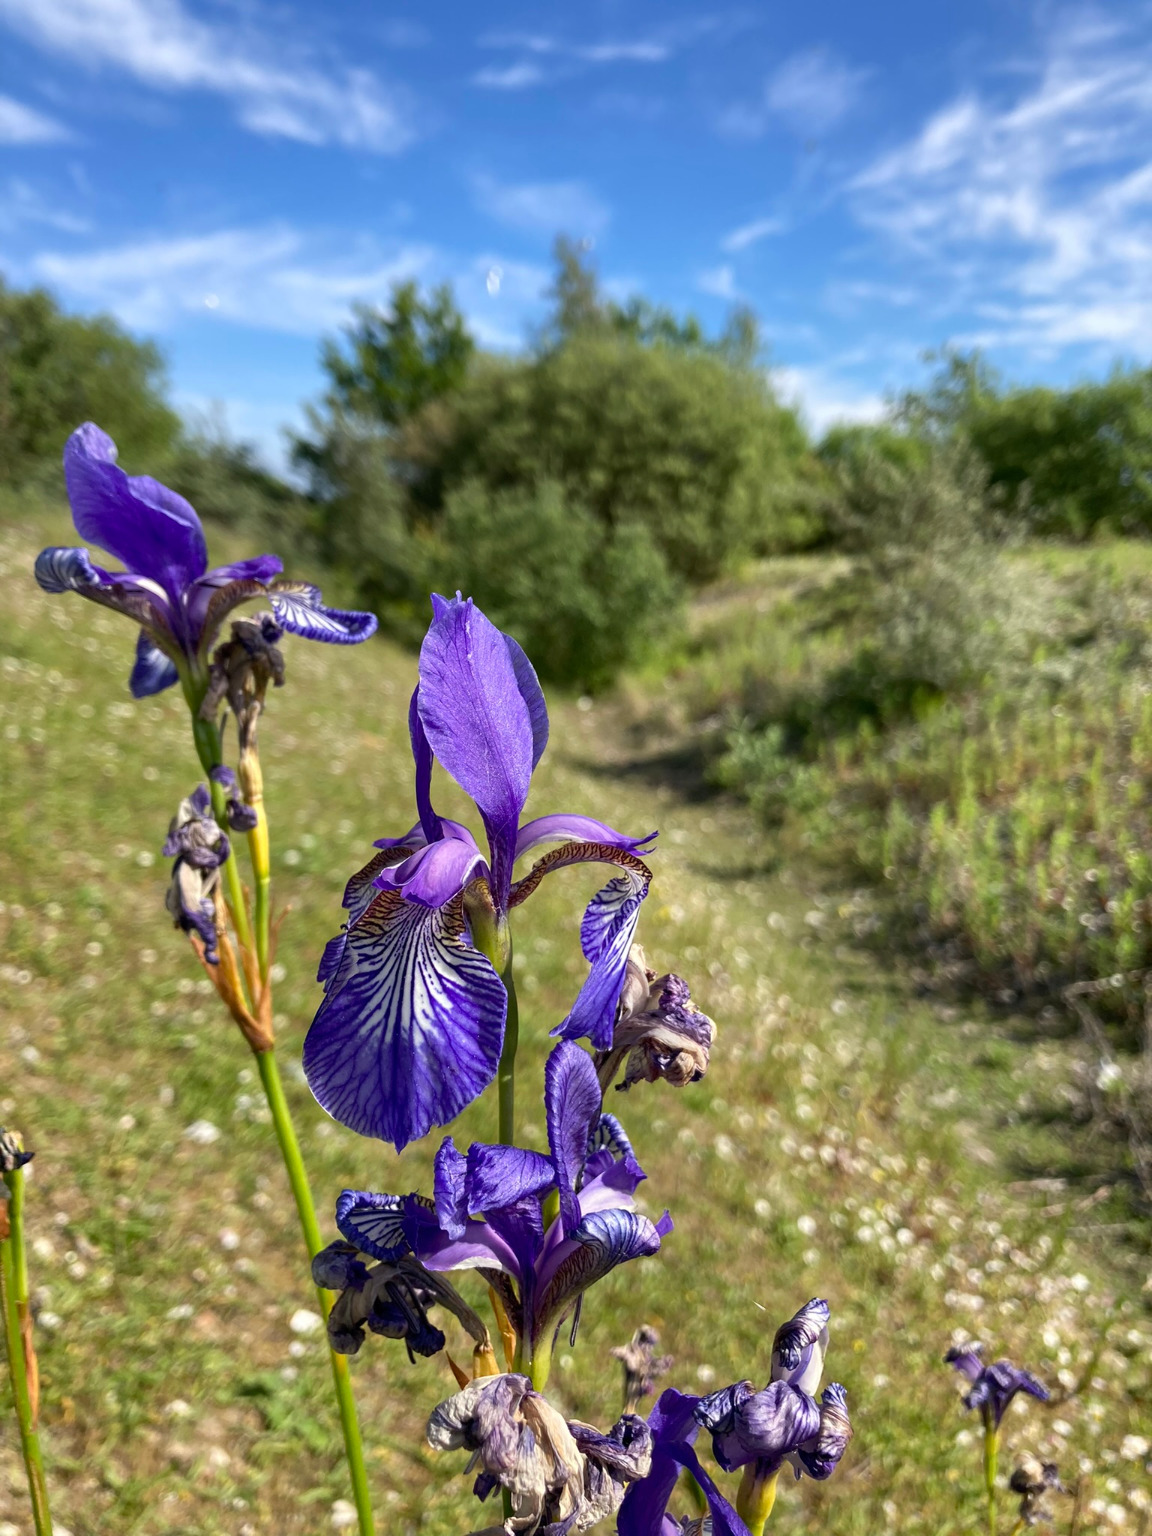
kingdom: Plantae
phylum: Tracheophyta
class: Liliopsida
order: Asparagales
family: Iridaceae
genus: Iris
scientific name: Iris sibirica
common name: Sibirisk iris
